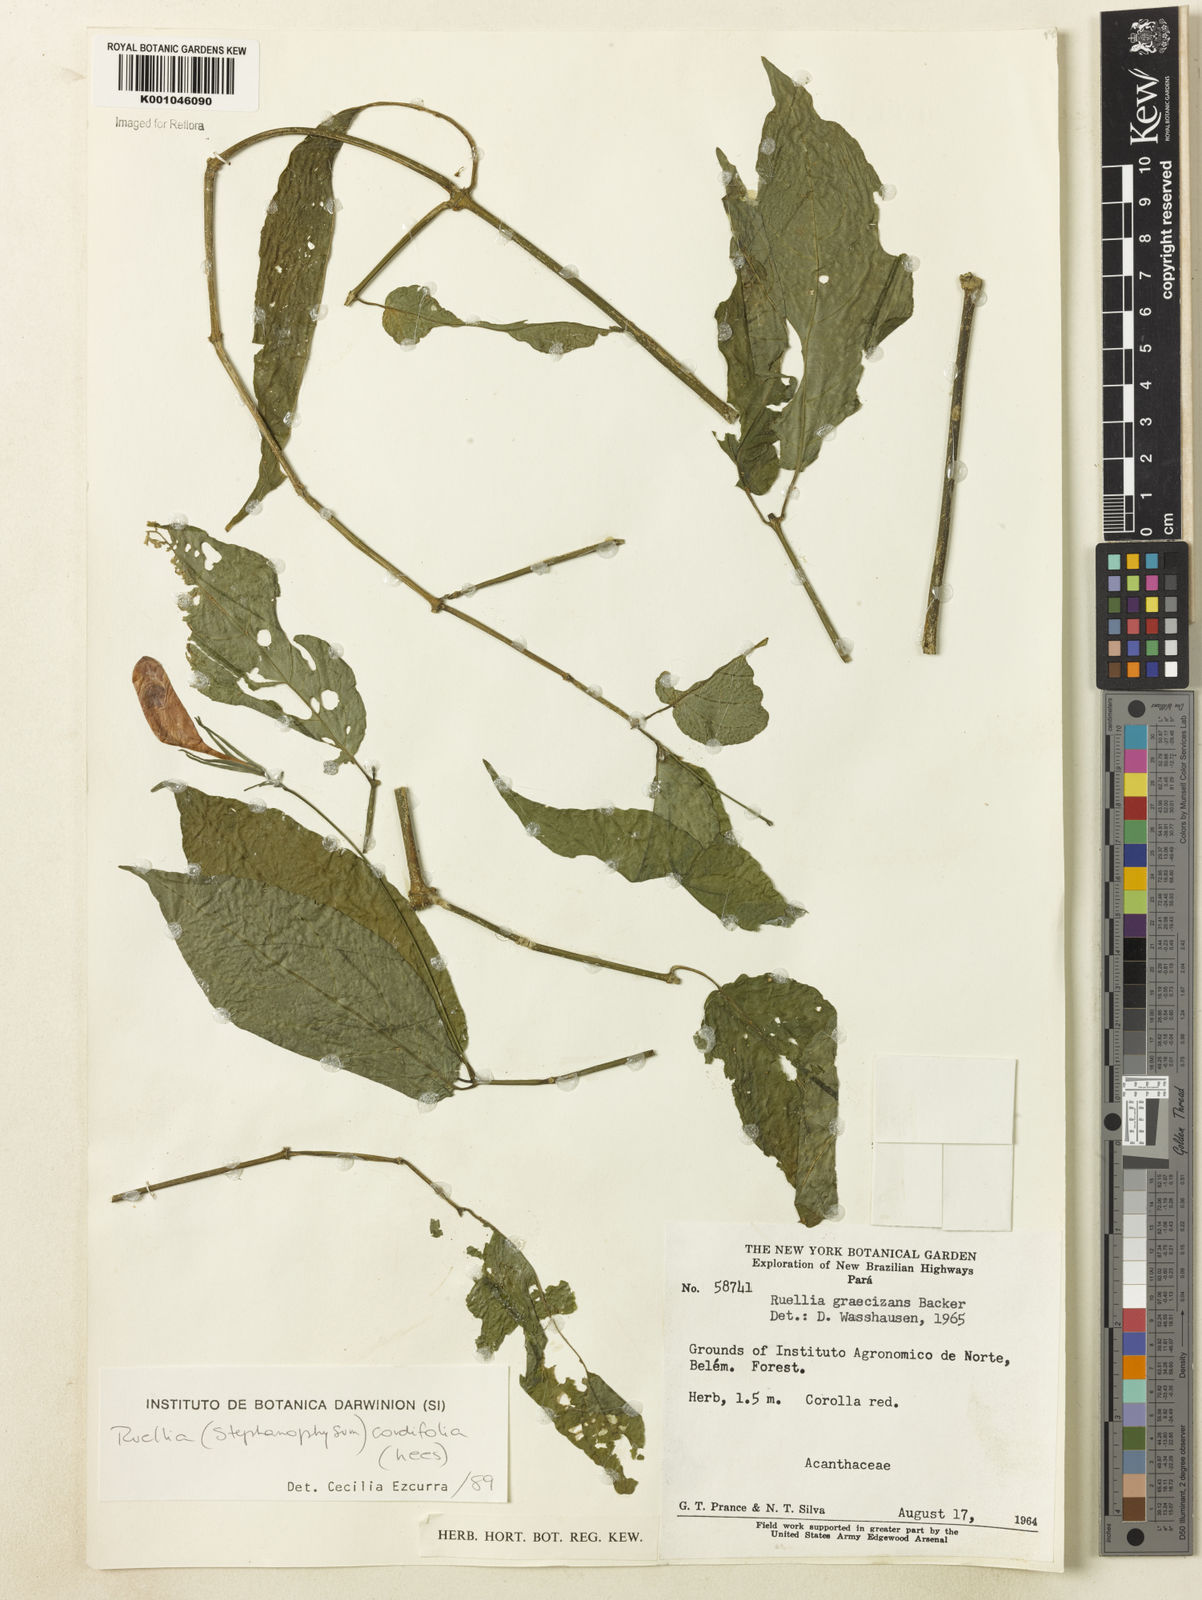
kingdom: Plantae
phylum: Tracheophyta
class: Magnoliopsida
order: Lamiales
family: Acanthaceae
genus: Ruellia
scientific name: Ruellia inflata
